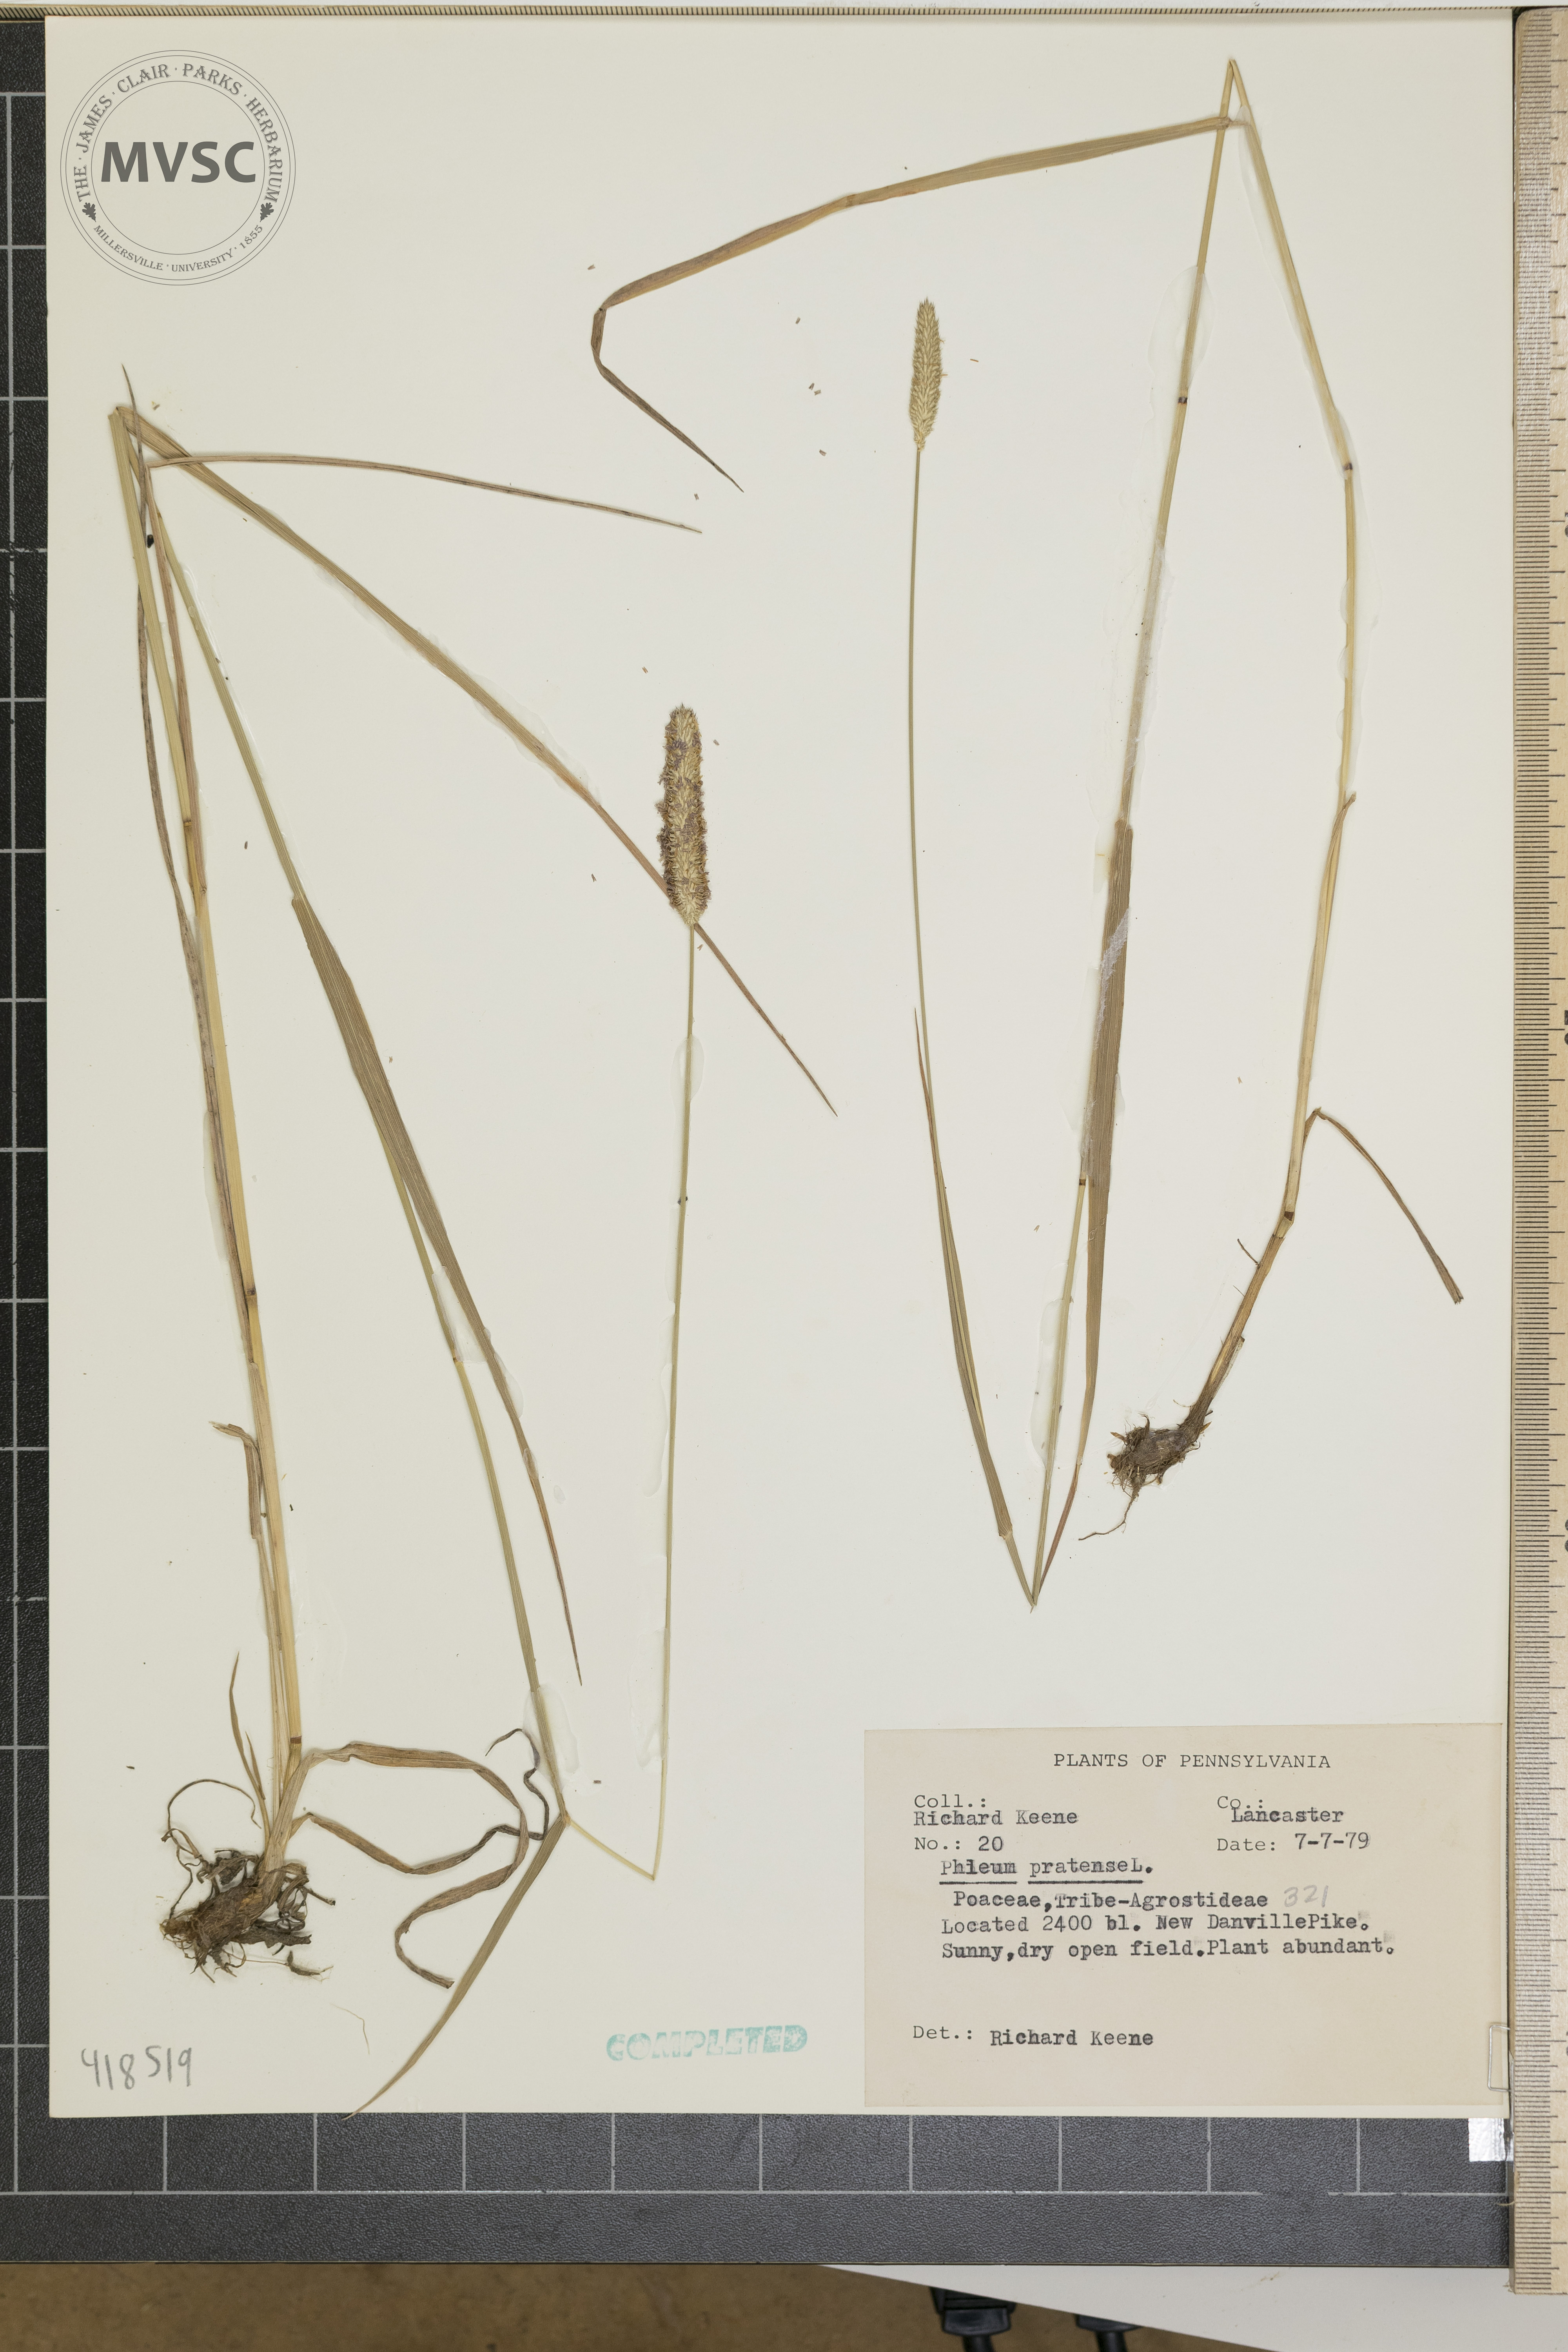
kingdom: Plantae
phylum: Tracheophyta
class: Liliopsida
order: Poales
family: Poaceae
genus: Phleum
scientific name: Phleum pratense
